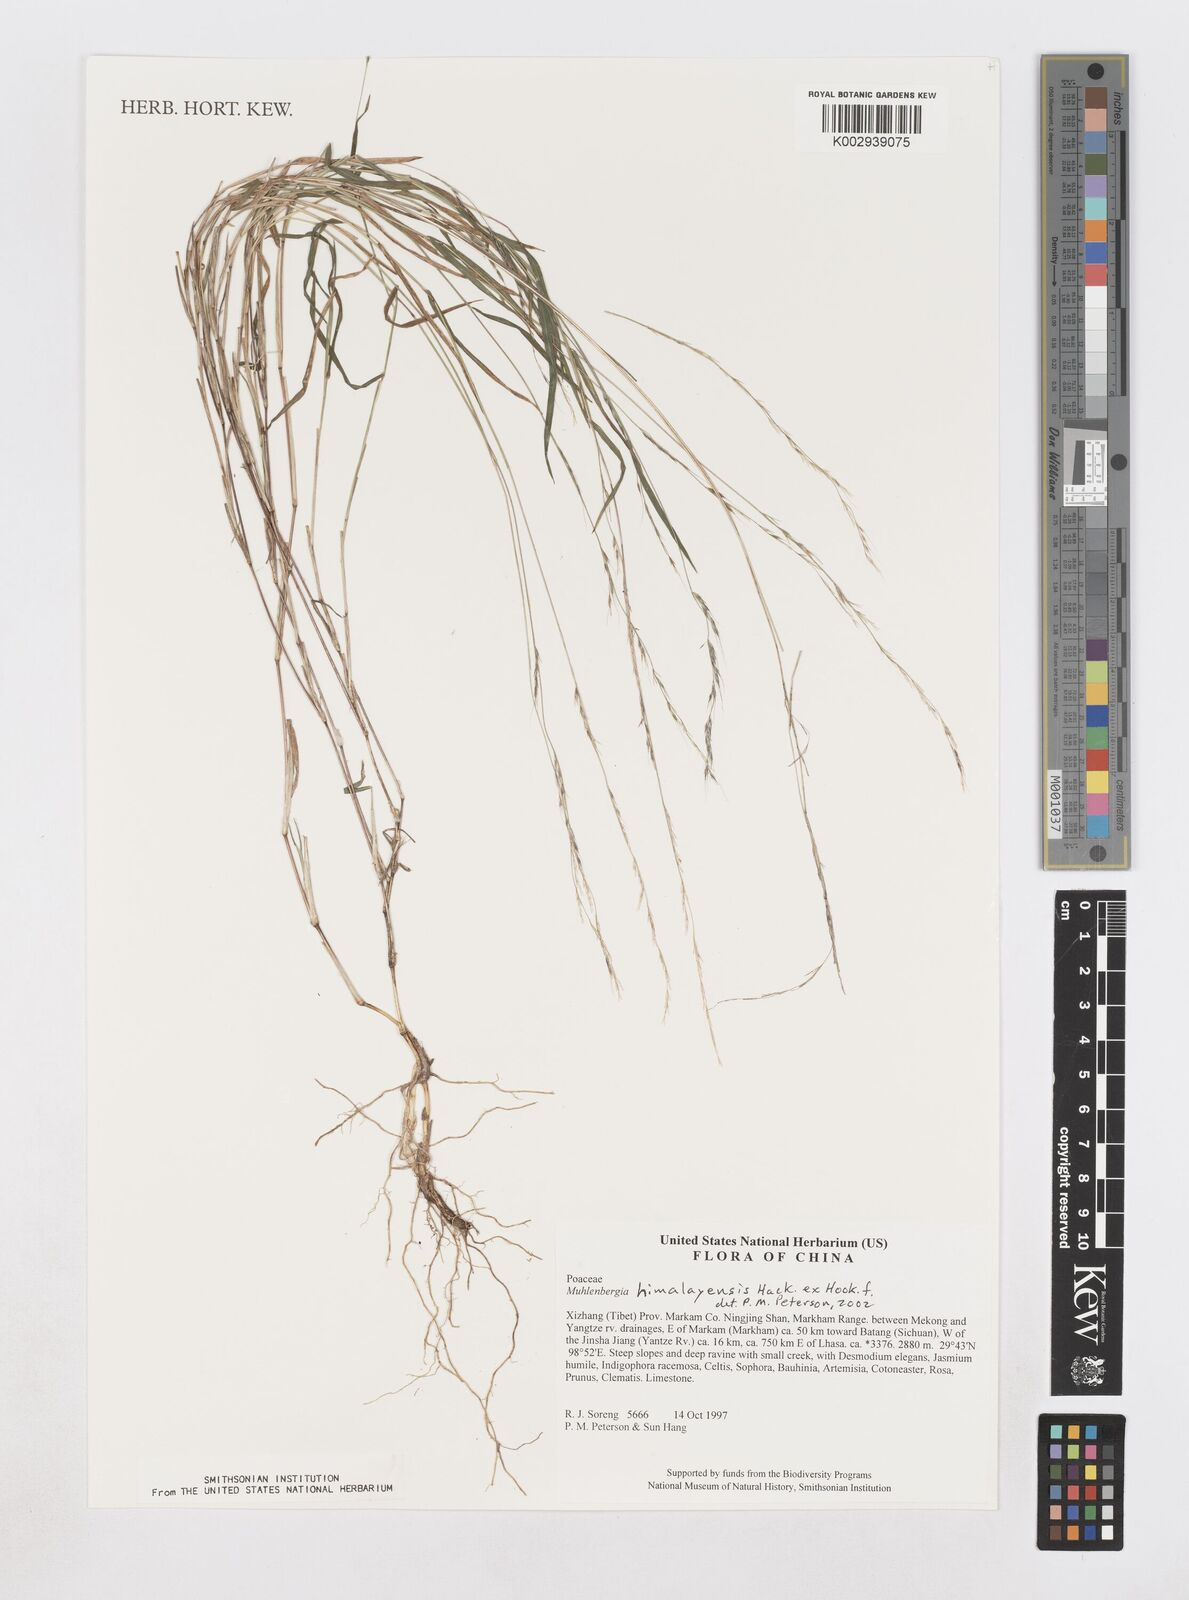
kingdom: Plantae
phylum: Tracheophyta
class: Liliopsida
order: Poales
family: Poaceae
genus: Muhlenbergia
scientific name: Muhlenbergia himalayensis
